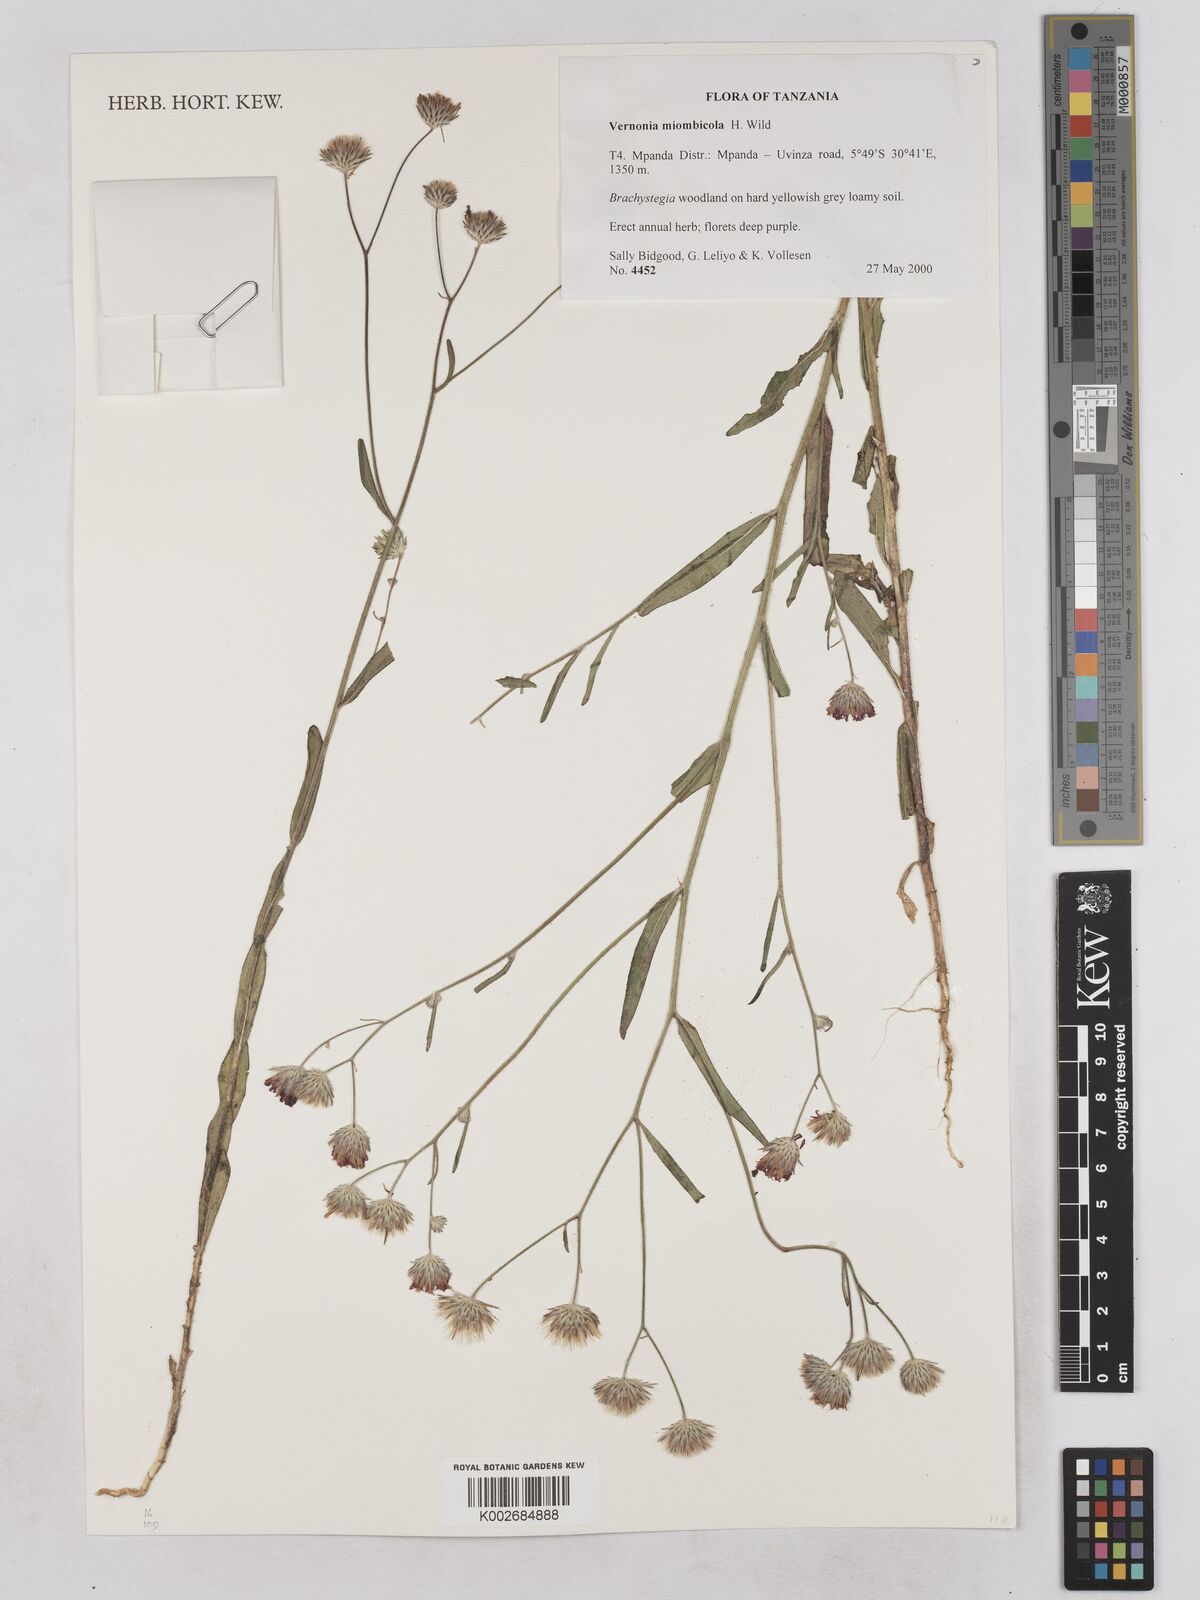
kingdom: Plantae
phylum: Tracheophyta
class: Magnoliopsida
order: Asterales
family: Asteraceae
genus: Vernonia
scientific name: Vernonia miombicola
